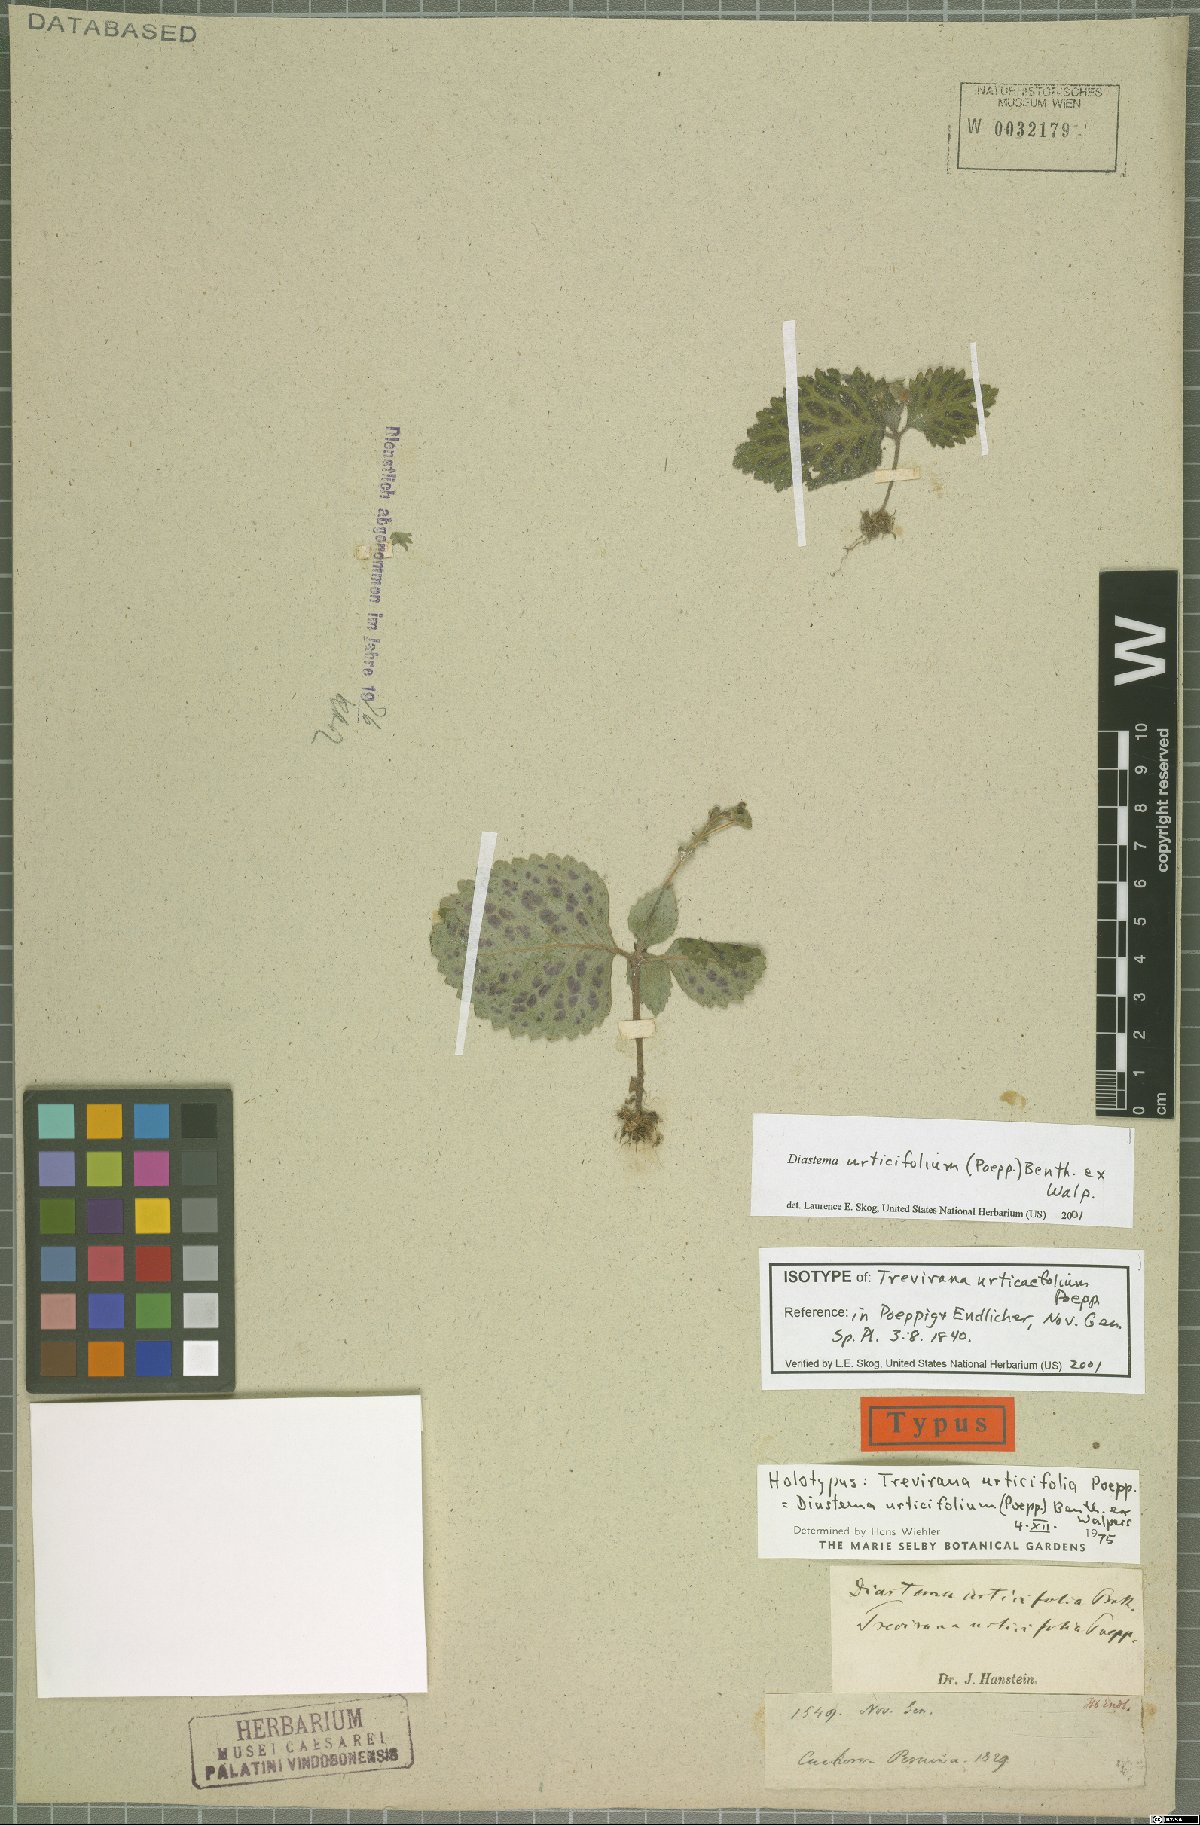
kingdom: Plantae
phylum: Tracheophyta
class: Magnoliopsida
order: Lamiales
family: Gesneriaceae
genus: Diastema
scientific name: Diastema urticifolium
